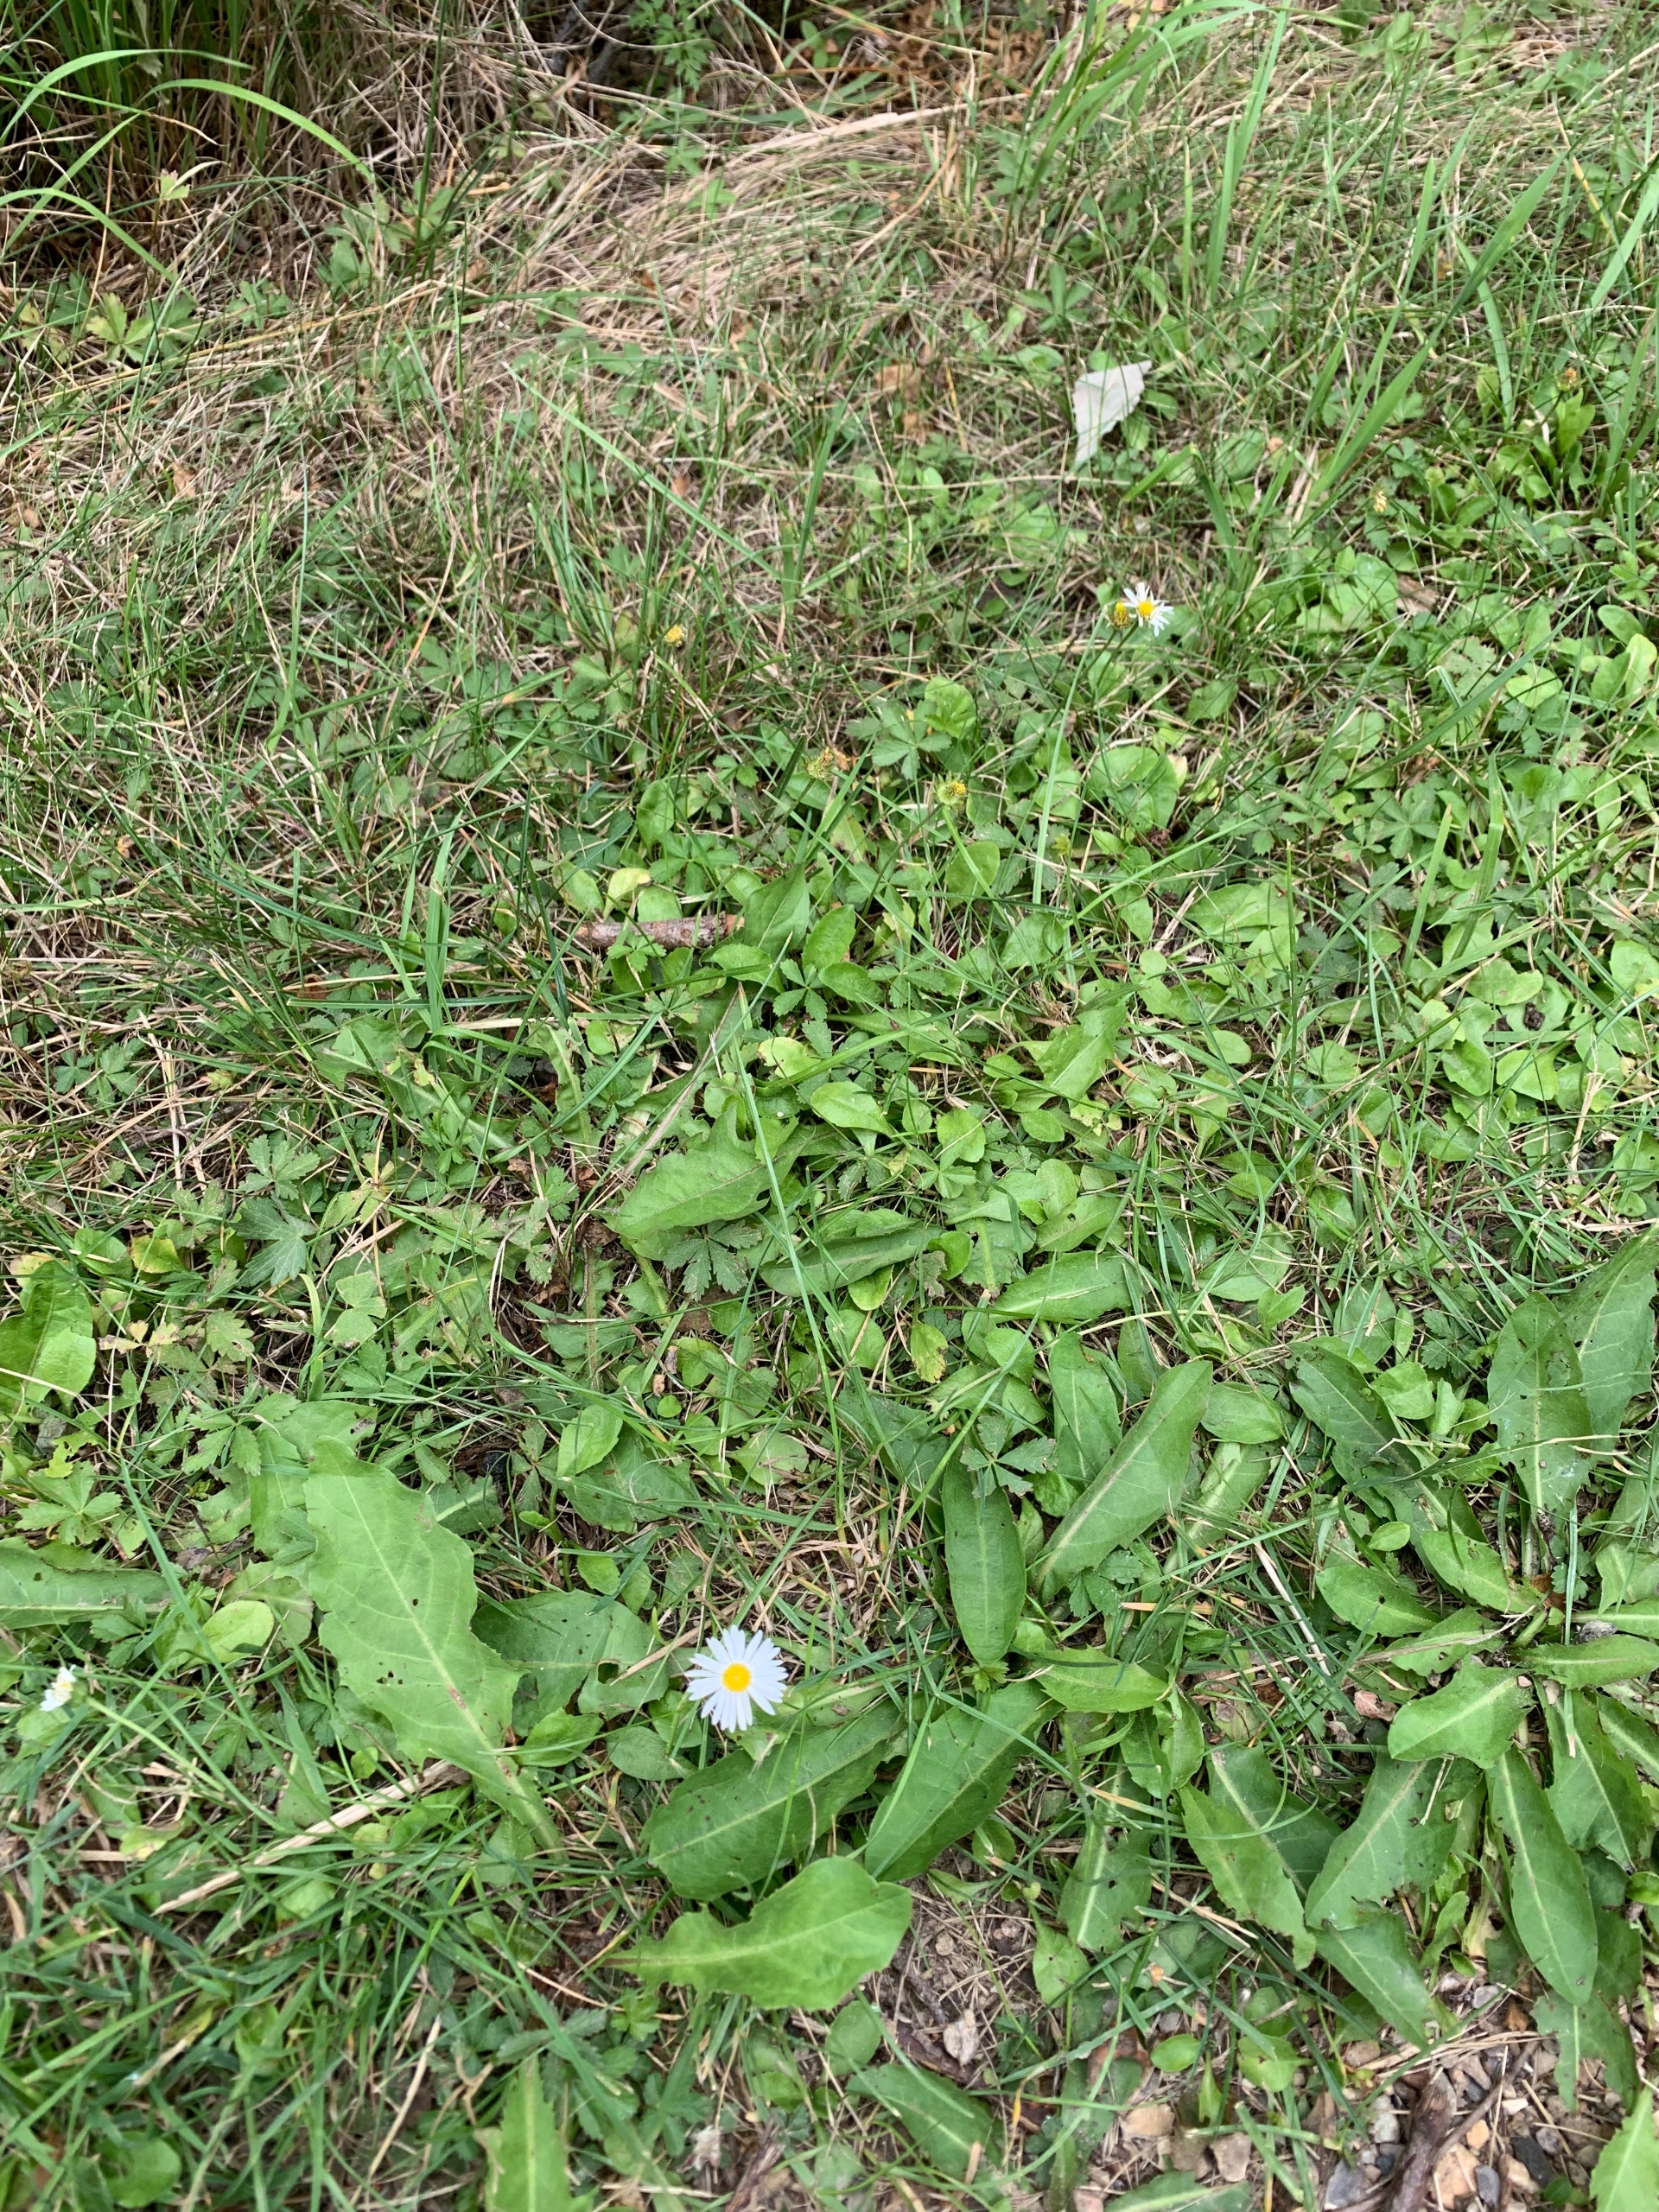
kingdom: Plantae
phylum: Tracheophyta
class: Magnoliopsida
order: Asterales
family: Asteraceae
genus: Bellis
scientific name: Bellis perennis
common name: Tusindfryd
